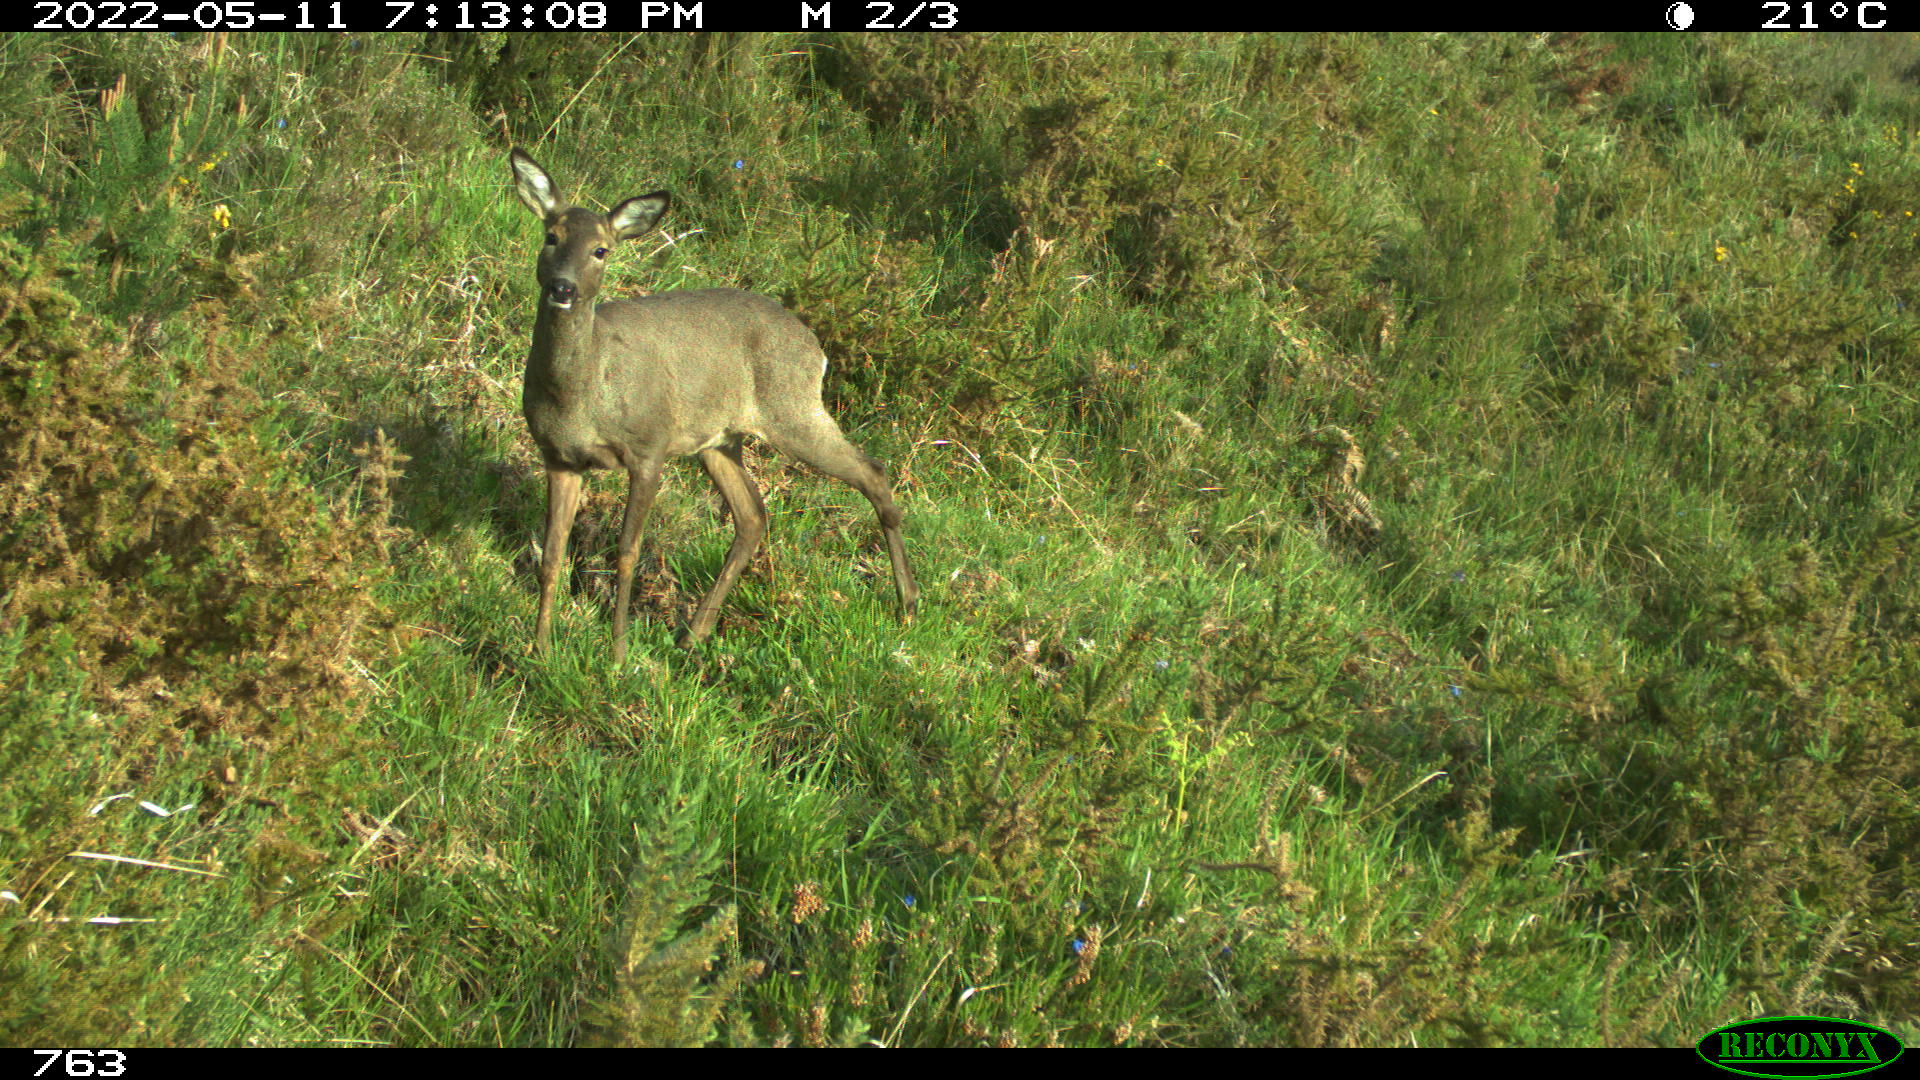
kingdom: Animalia
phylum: Chordata
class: Mammalia
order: Artiodactyla
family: Cervidae
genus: Capreolus
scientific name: Capreolus capreolus
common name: Western roe deer
